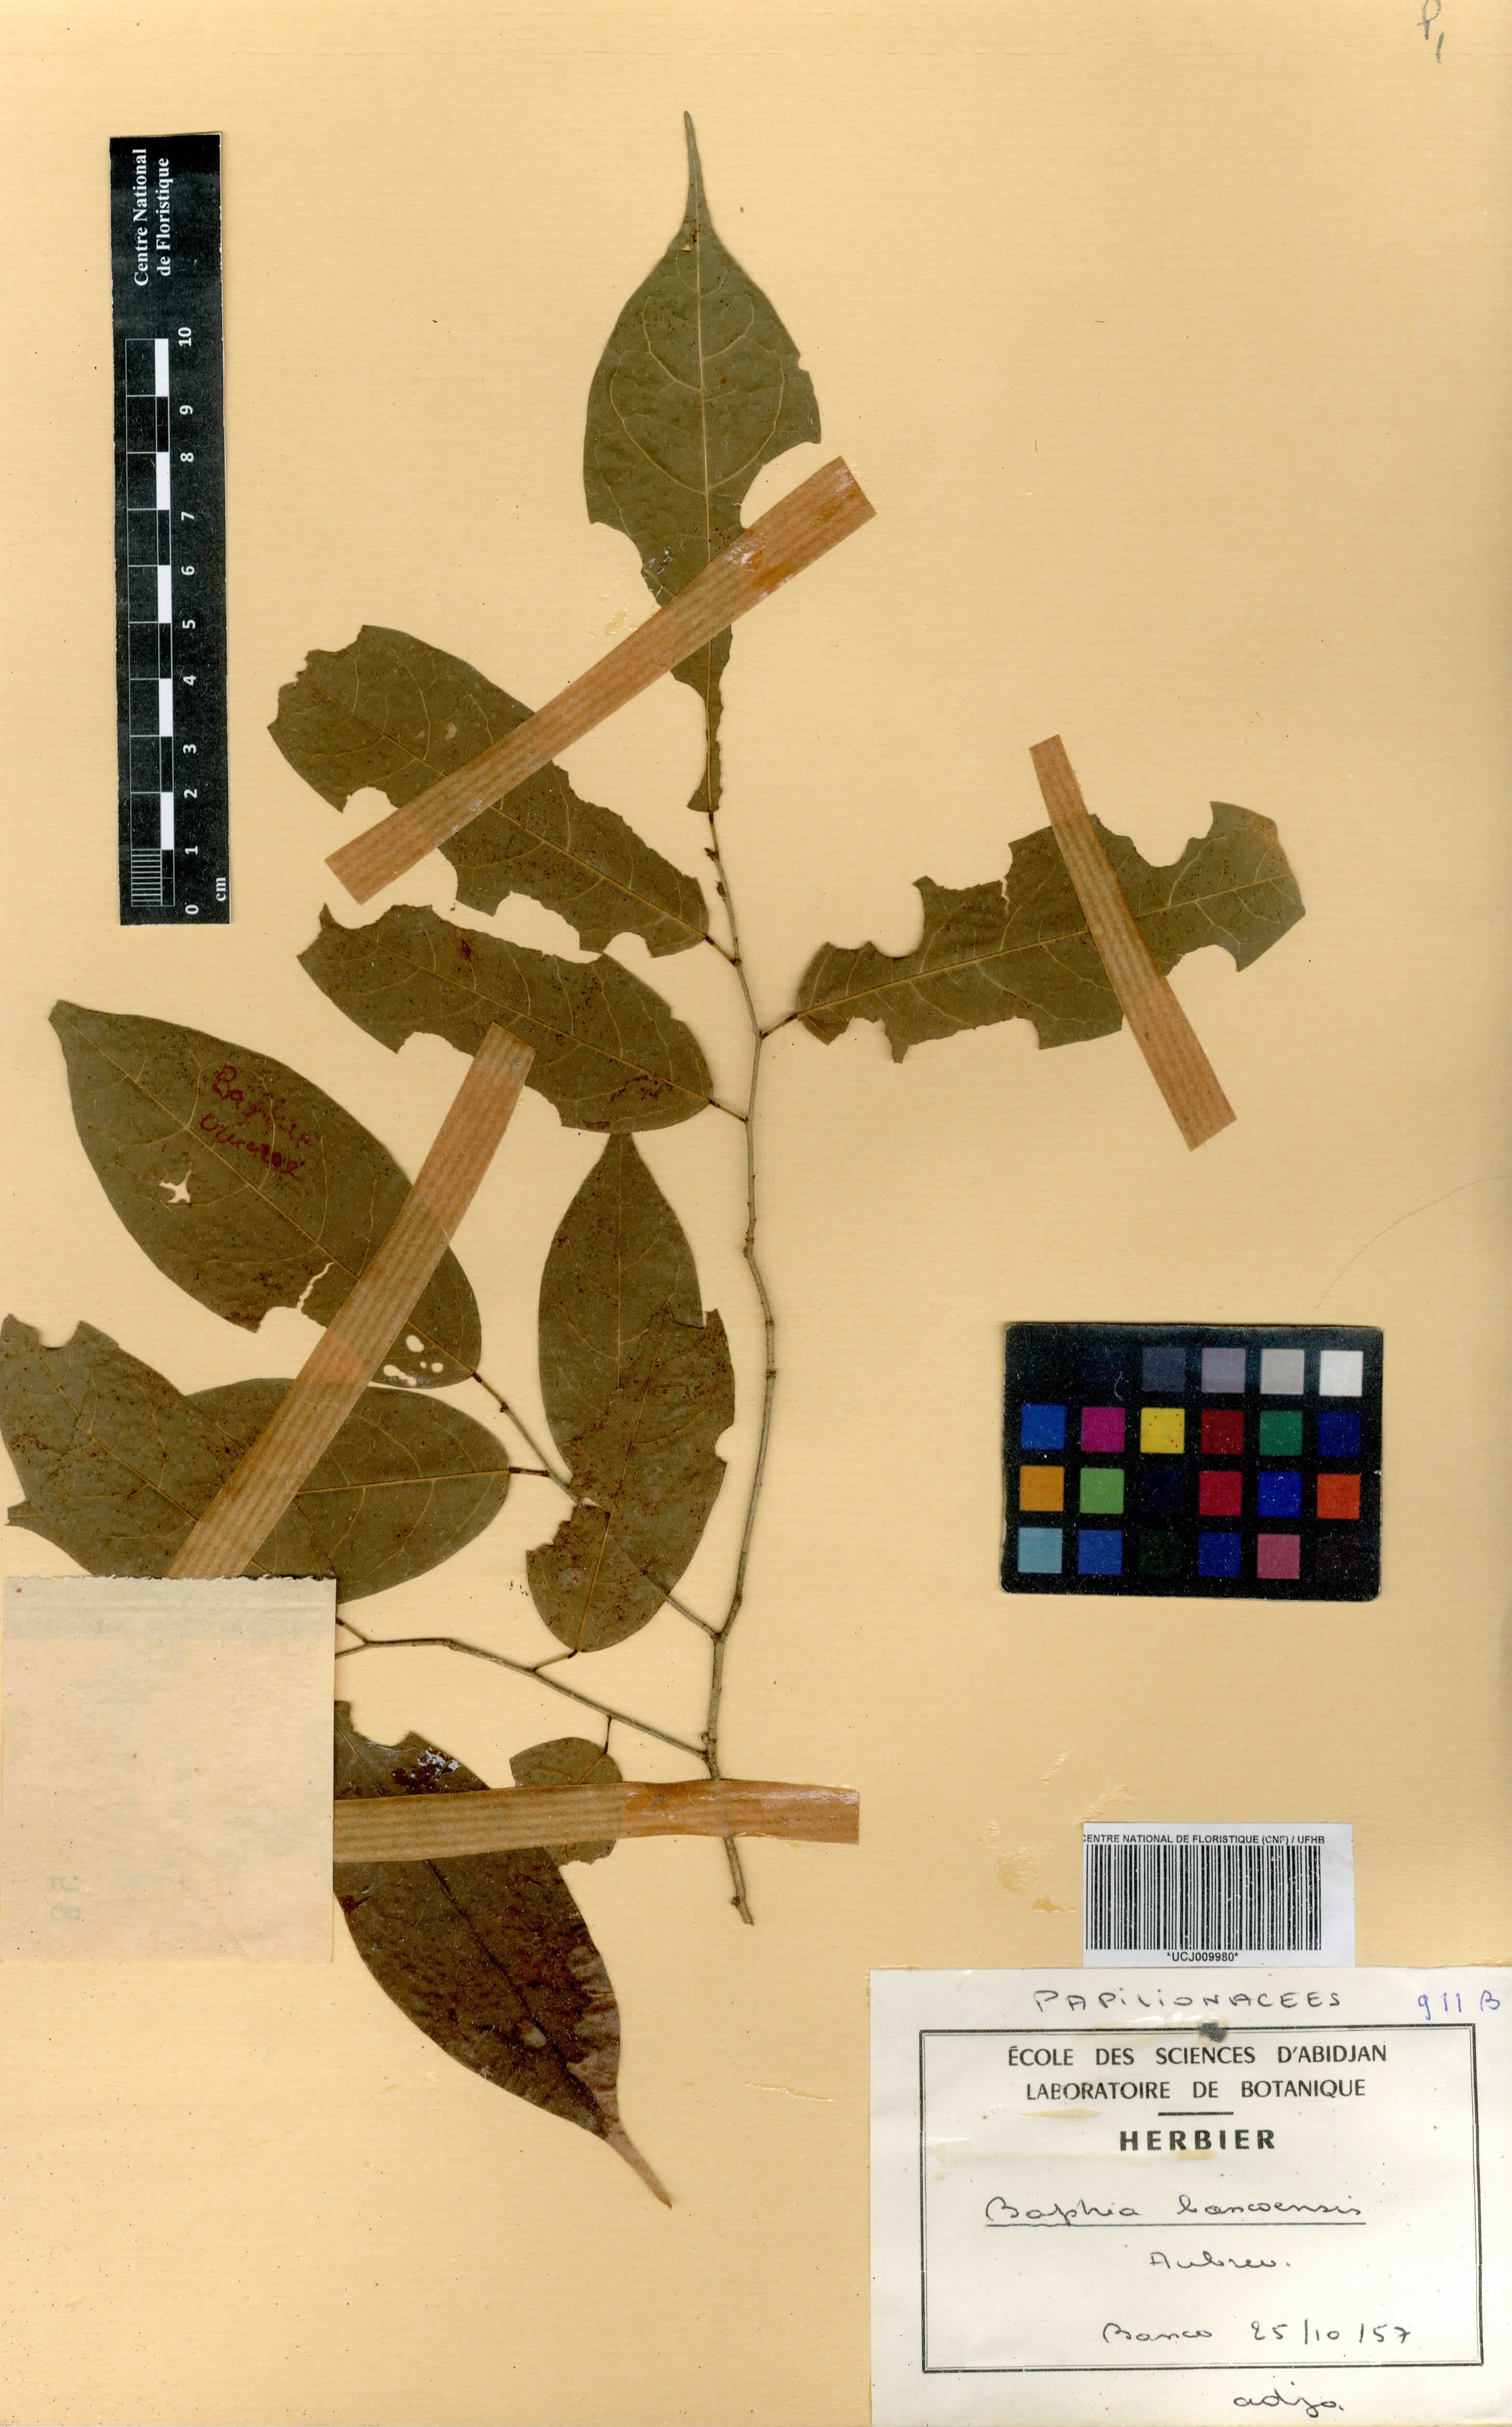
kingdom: Plantae
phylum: Tracheophyta
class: Magnoliopsida
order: Fabales
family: Fabaceae
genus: Baphia
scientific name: Baphia pubescens
